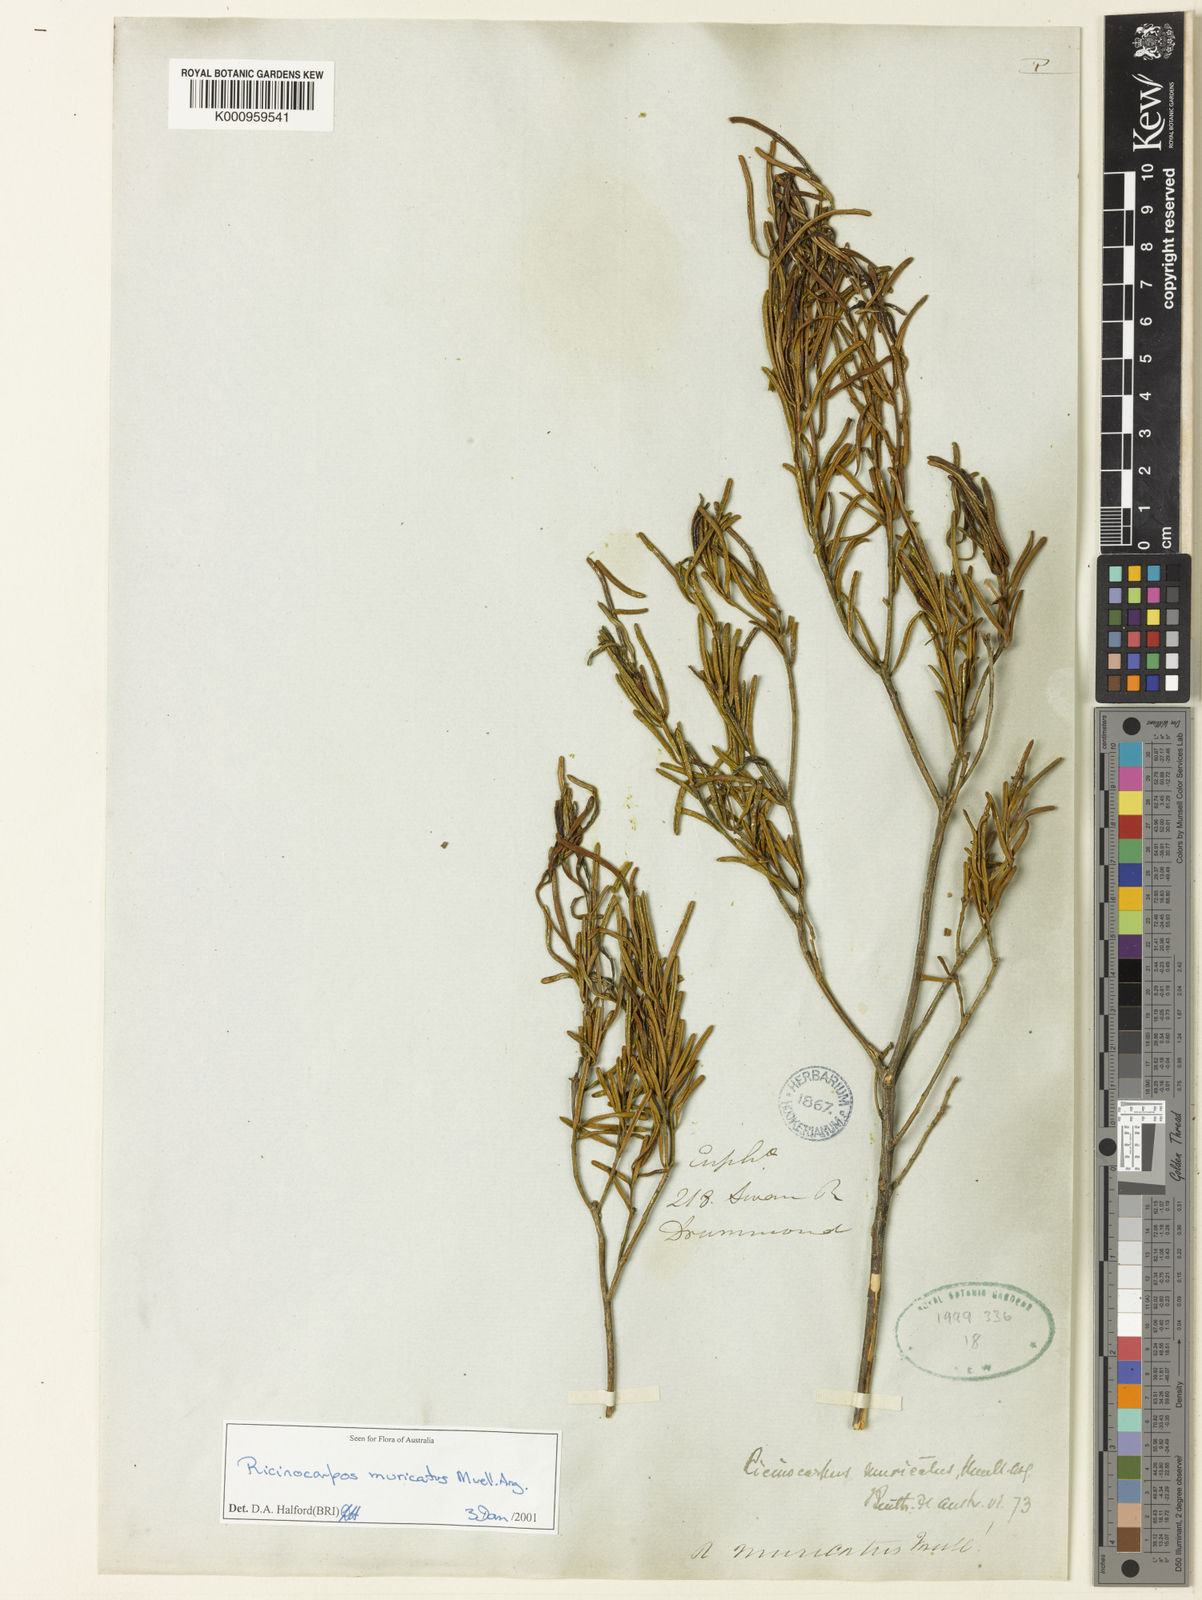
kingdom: Plantae
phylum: Tracheophyta
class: Magnoliopsida
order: Malpighiales
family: Euphorbiaceae
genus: Ricinocarpos
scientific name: Ricinocarpos
